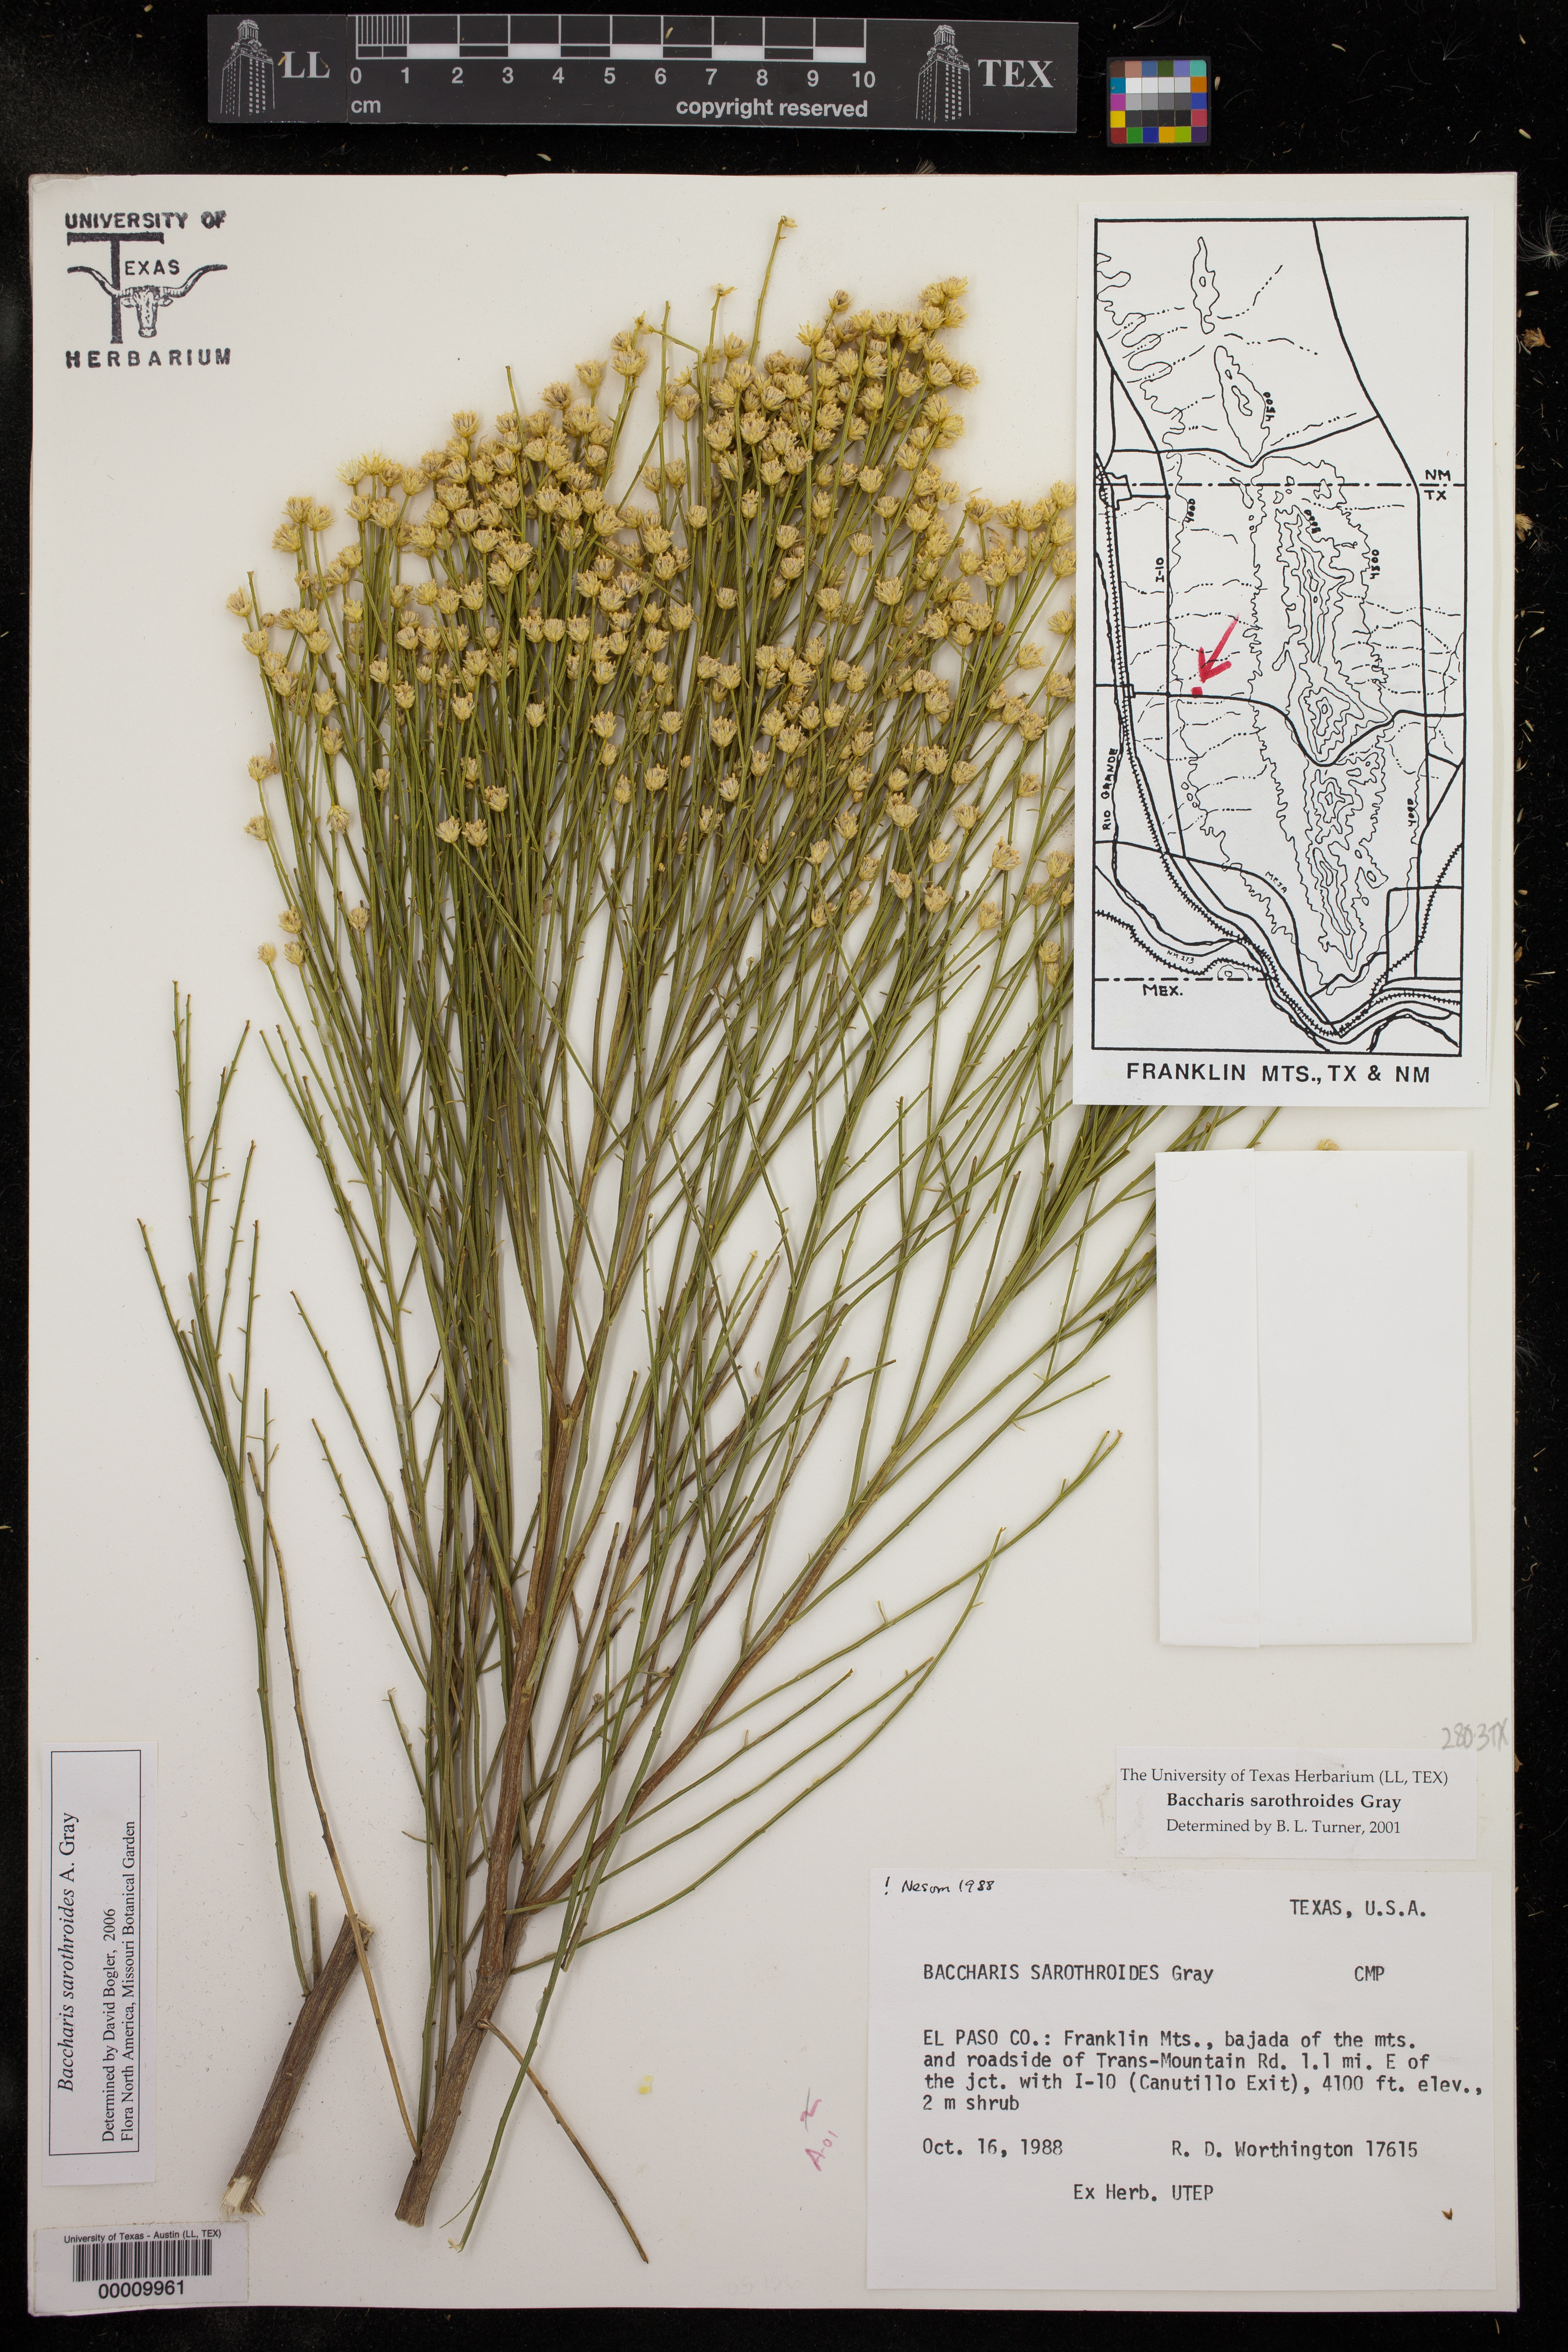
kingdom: Plantae
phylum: Tracheophyta
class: Magnoliopsida
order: Asterales
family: Asteraceae
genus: Baccharis
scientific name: Baccharis sarothroides
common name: Desert-broom
